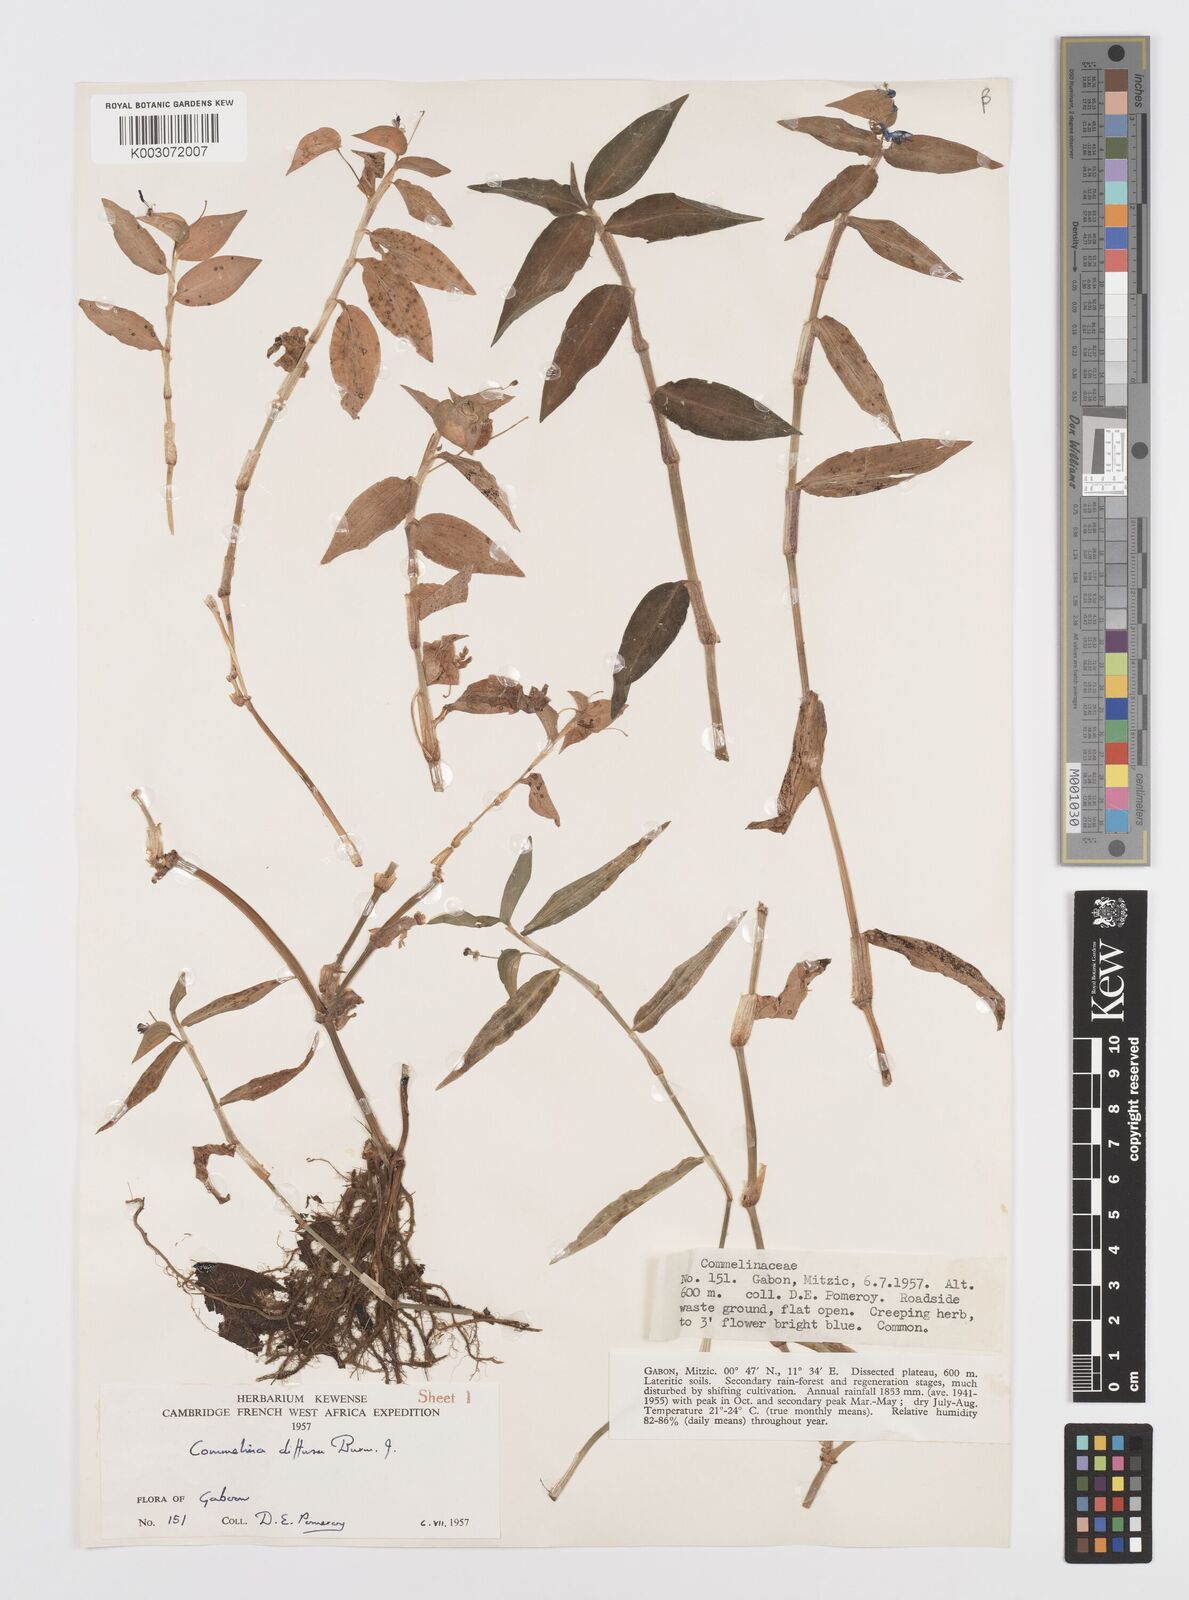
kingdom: Plantae
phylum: Tracheophyta
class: Liliopsida
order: Commelinales
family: Commelinaceae
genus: Commelina
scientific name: Commelina diffusa
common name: Climbing dayflower
